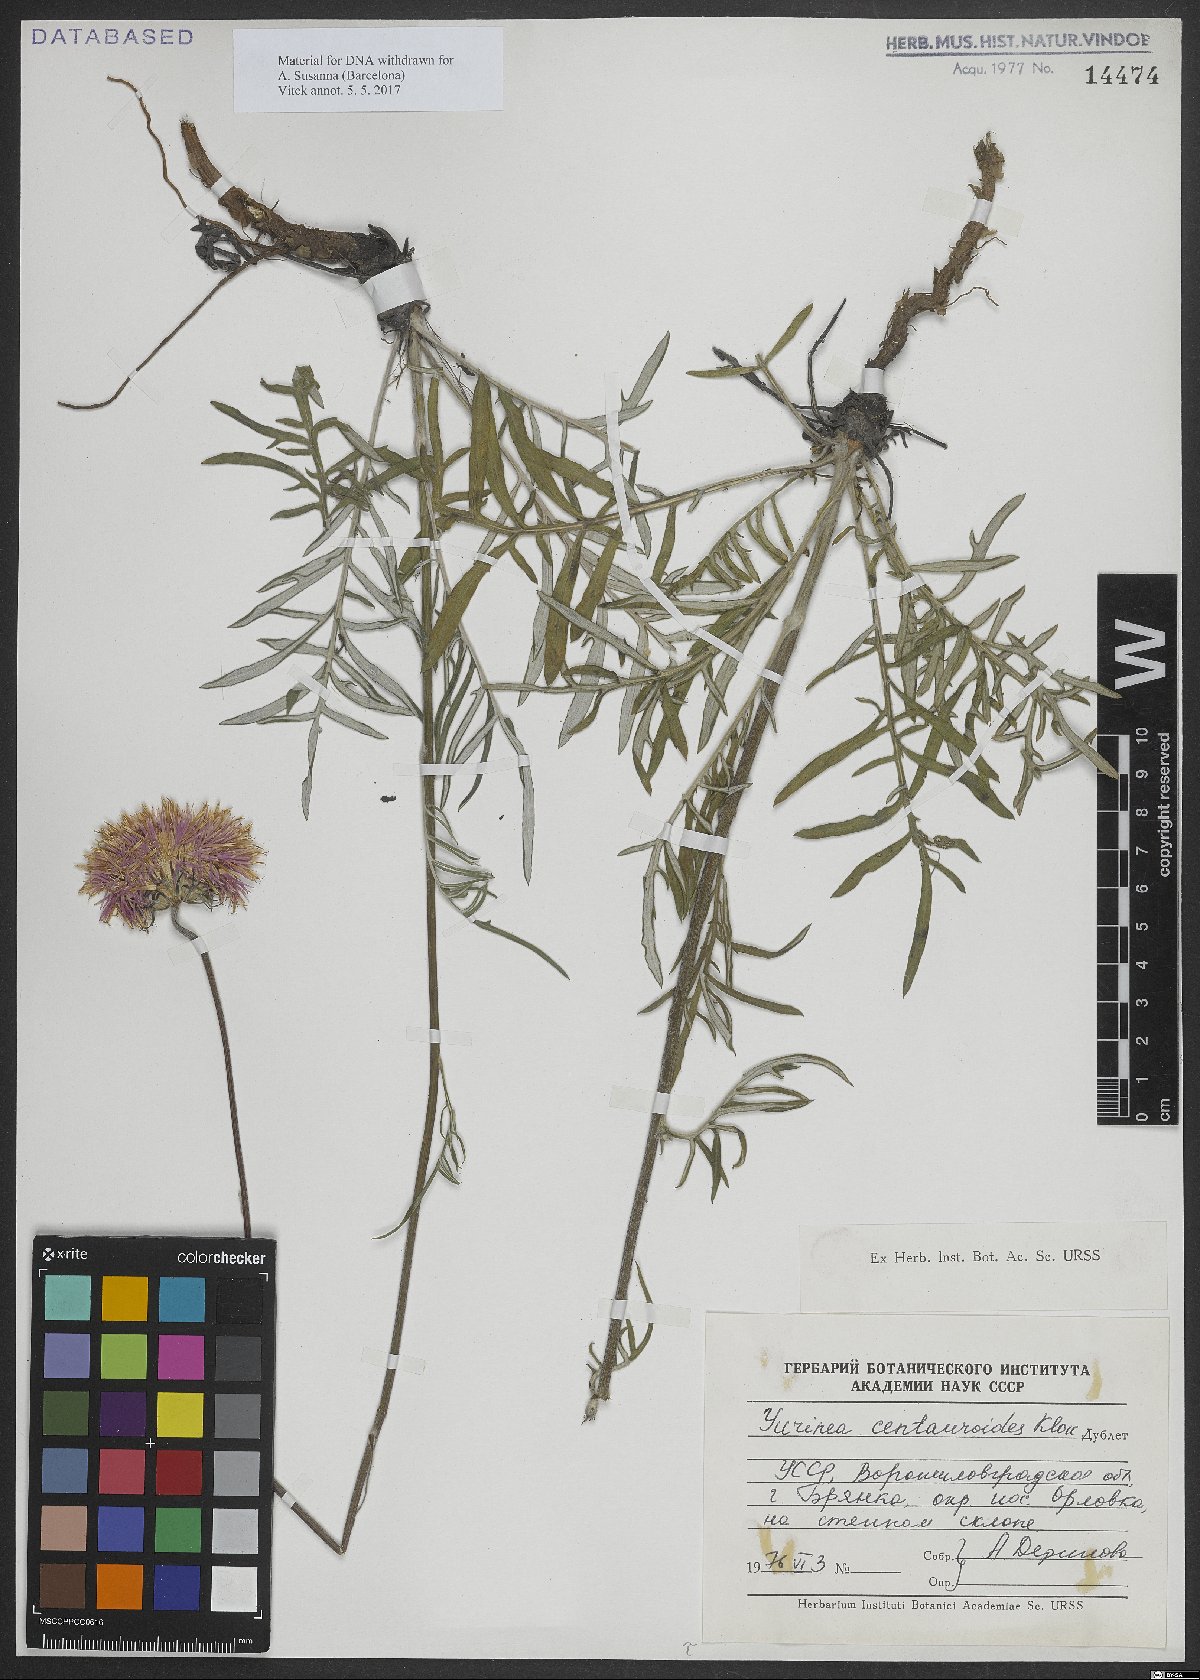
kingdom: Plantae
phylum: Tracheophyta
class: Magnoliopsida
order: Asterales
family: Asteraceae
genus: Jurinea
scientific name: Jurinea
